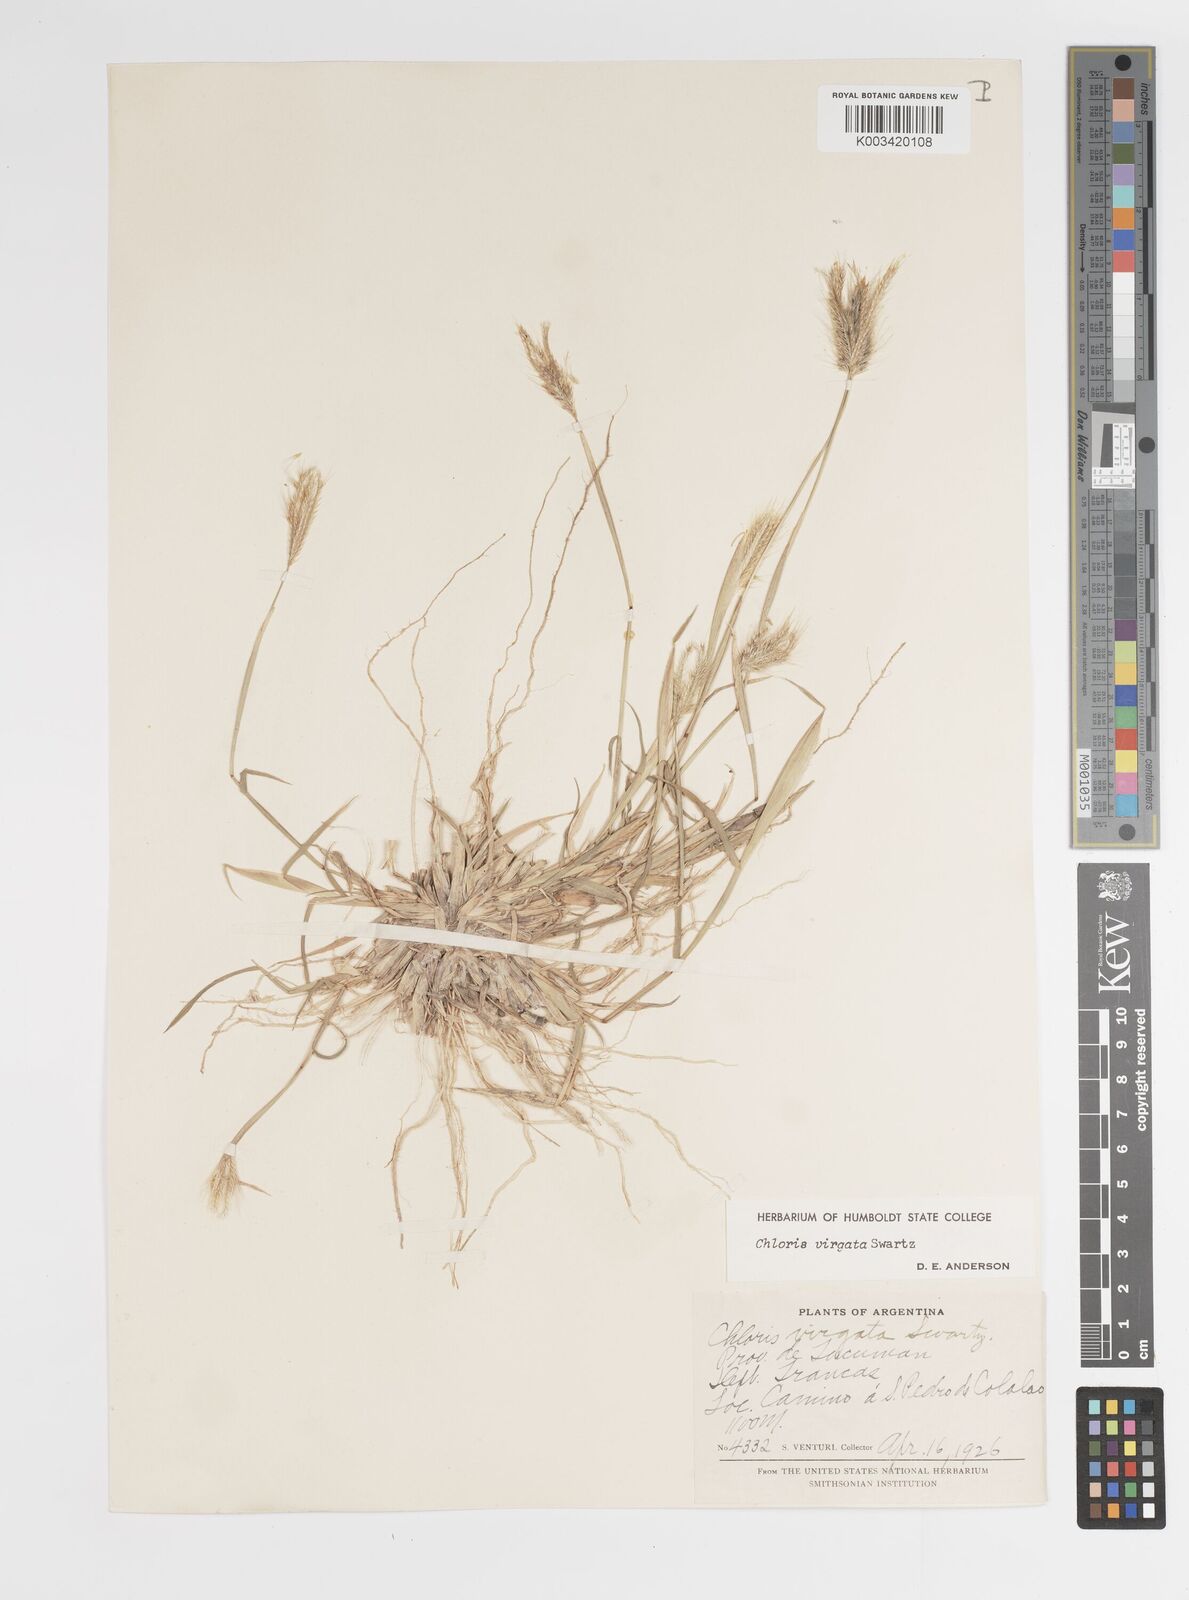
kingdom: Plantae
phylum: Tracheophyta
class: Liliopsida
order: Poales
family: Poaceae
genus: Chloris
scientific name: Chloris virgata
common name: Feathery rhodes-grass
